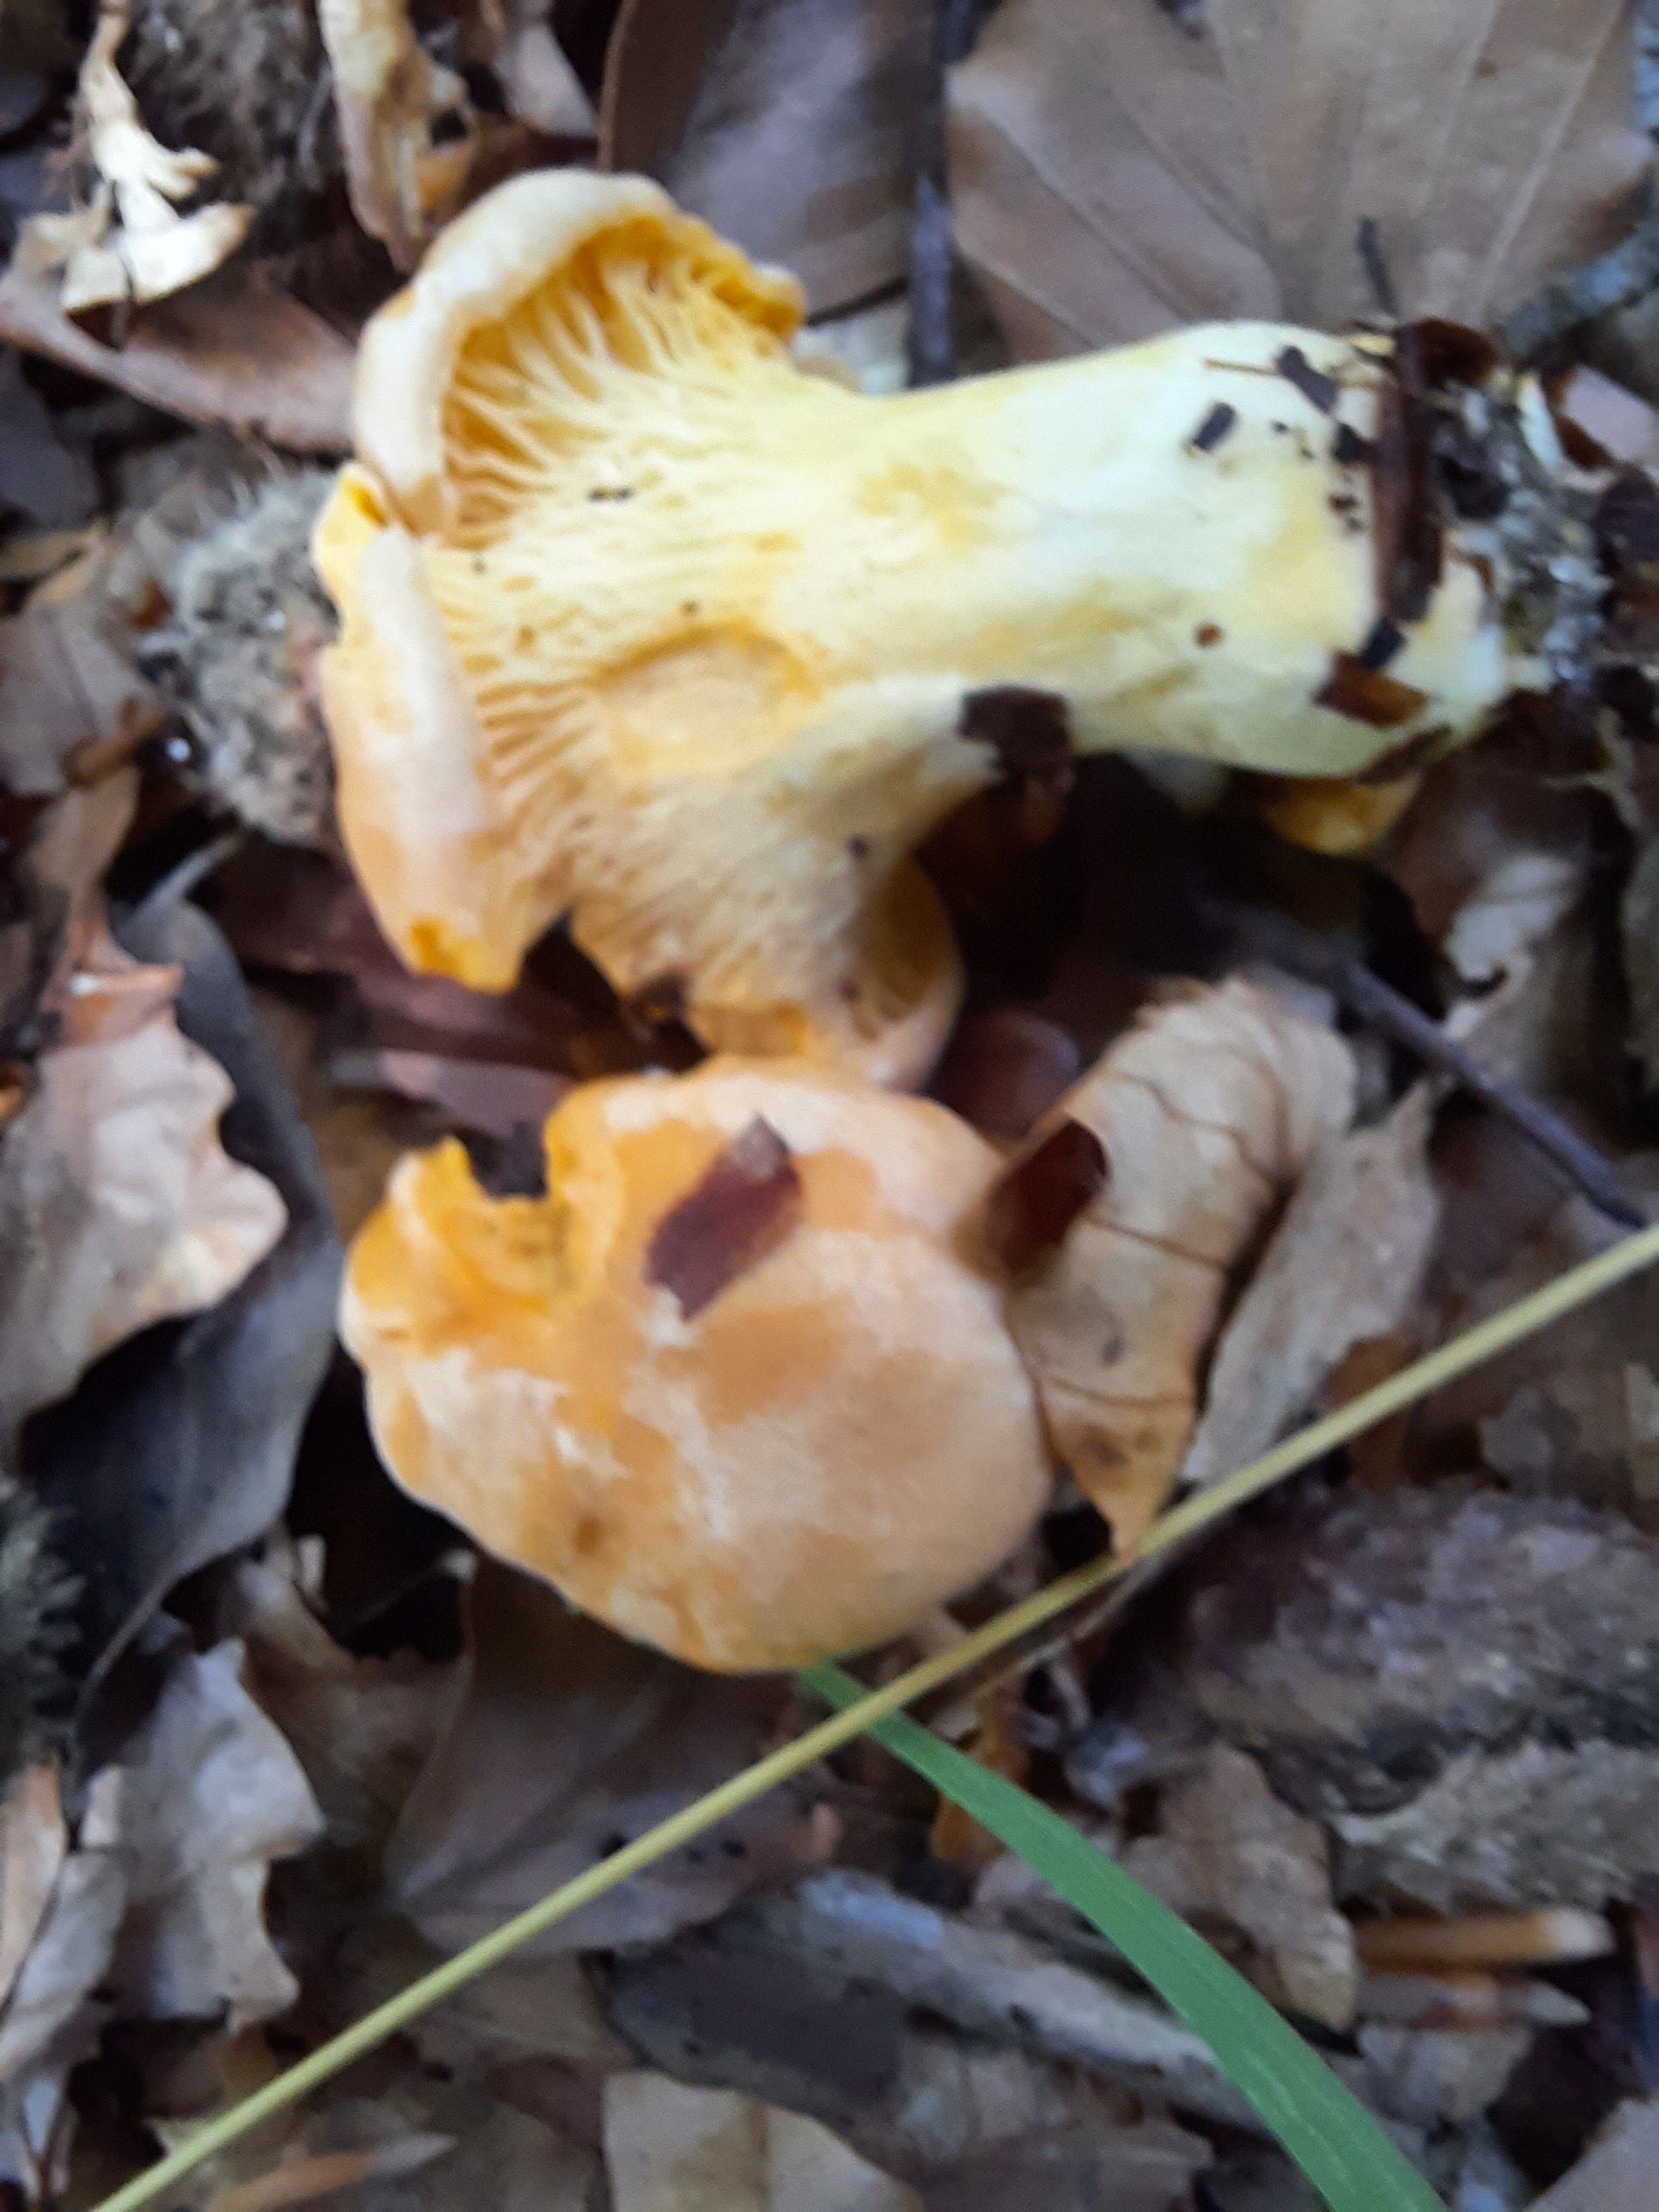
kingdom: Fungi
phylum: Basidiomycota
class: Agaricomycetes
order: Cantharellales
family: Hydnaceae
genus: Cantharellus
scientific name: Cantharellus pallens
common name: bleg kantarel
